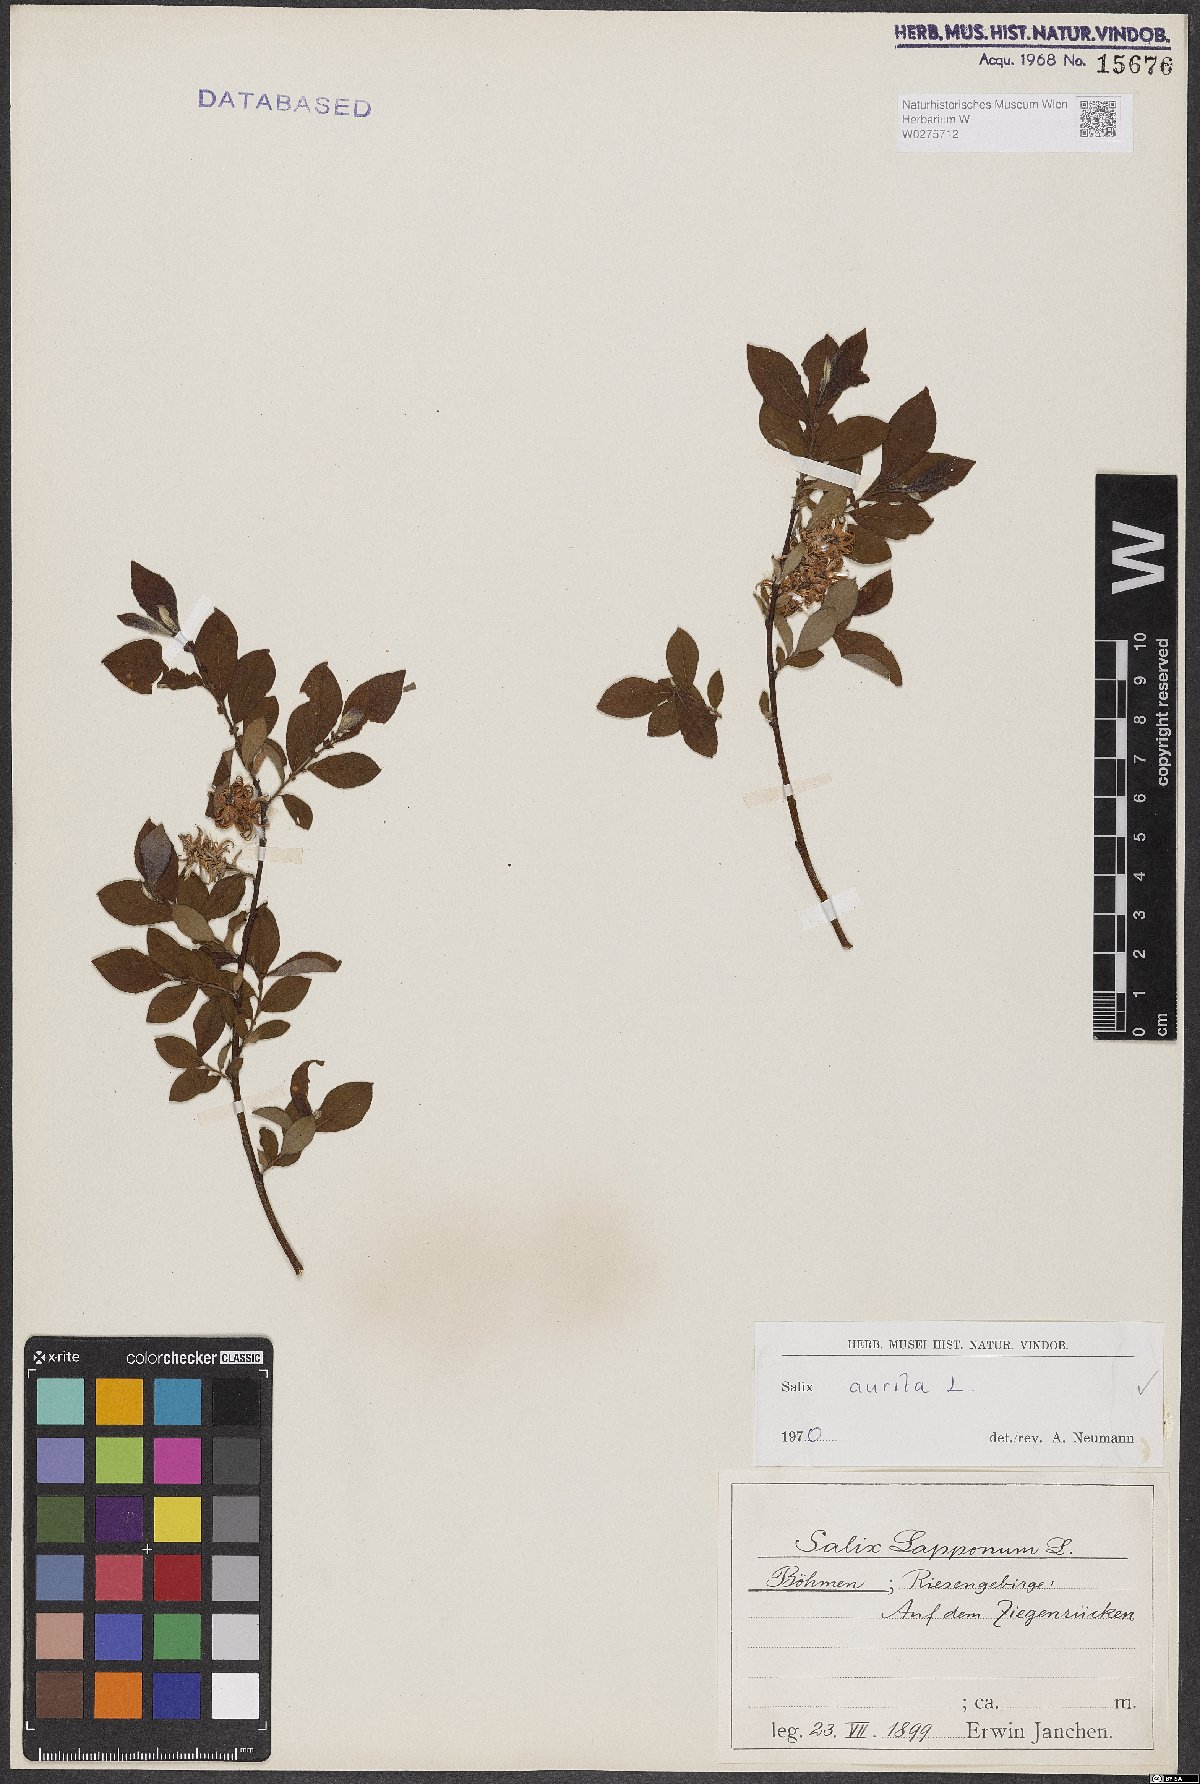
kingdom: Plantae
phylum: Tracheophyta
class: Magnoliopsida
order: Malpighiales
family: Salicaceae
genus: Salix
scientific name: Salix aurita
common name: Eared willow
